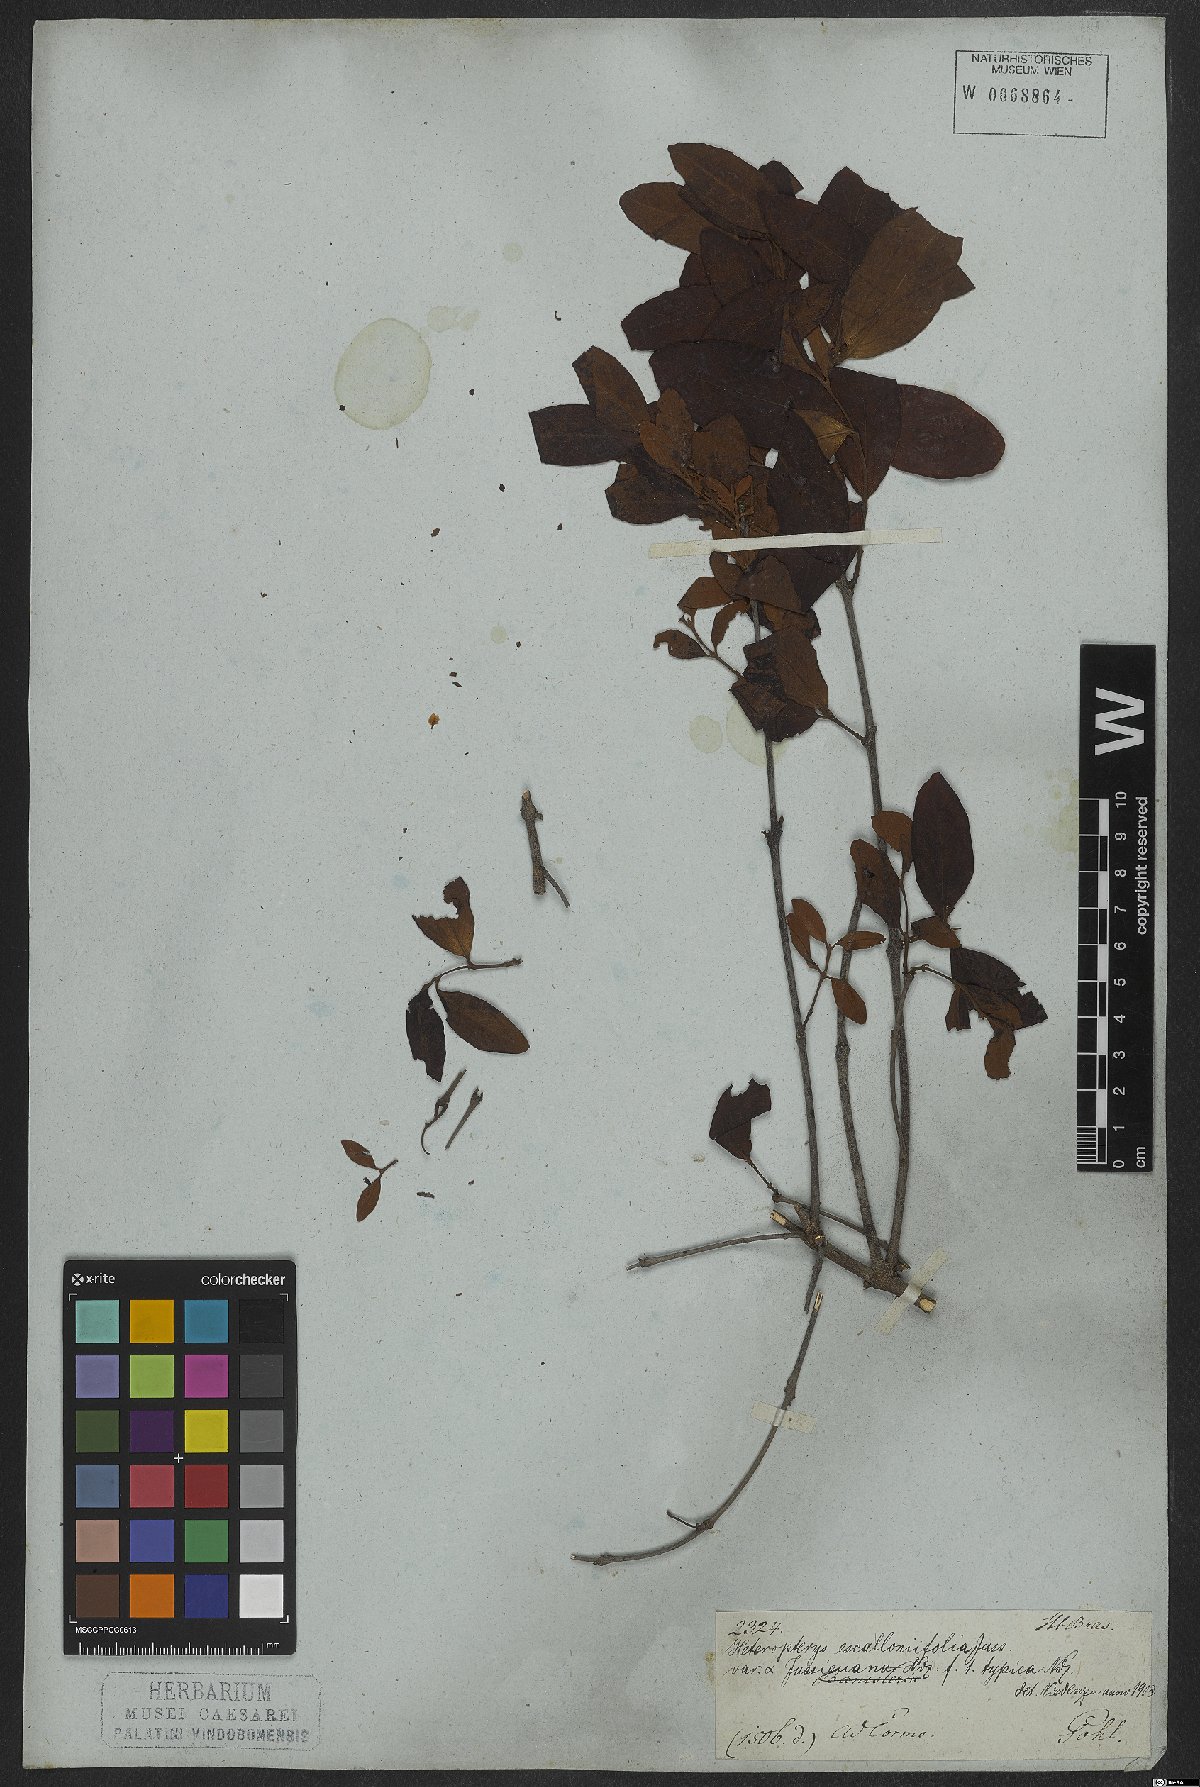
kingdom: Plantae
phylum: Tracheophyta
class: Magnoliopsida
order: Malpighiales
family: Malpighiaceae
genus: Heteropterys
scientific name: Heteropterys escalloniifolia
